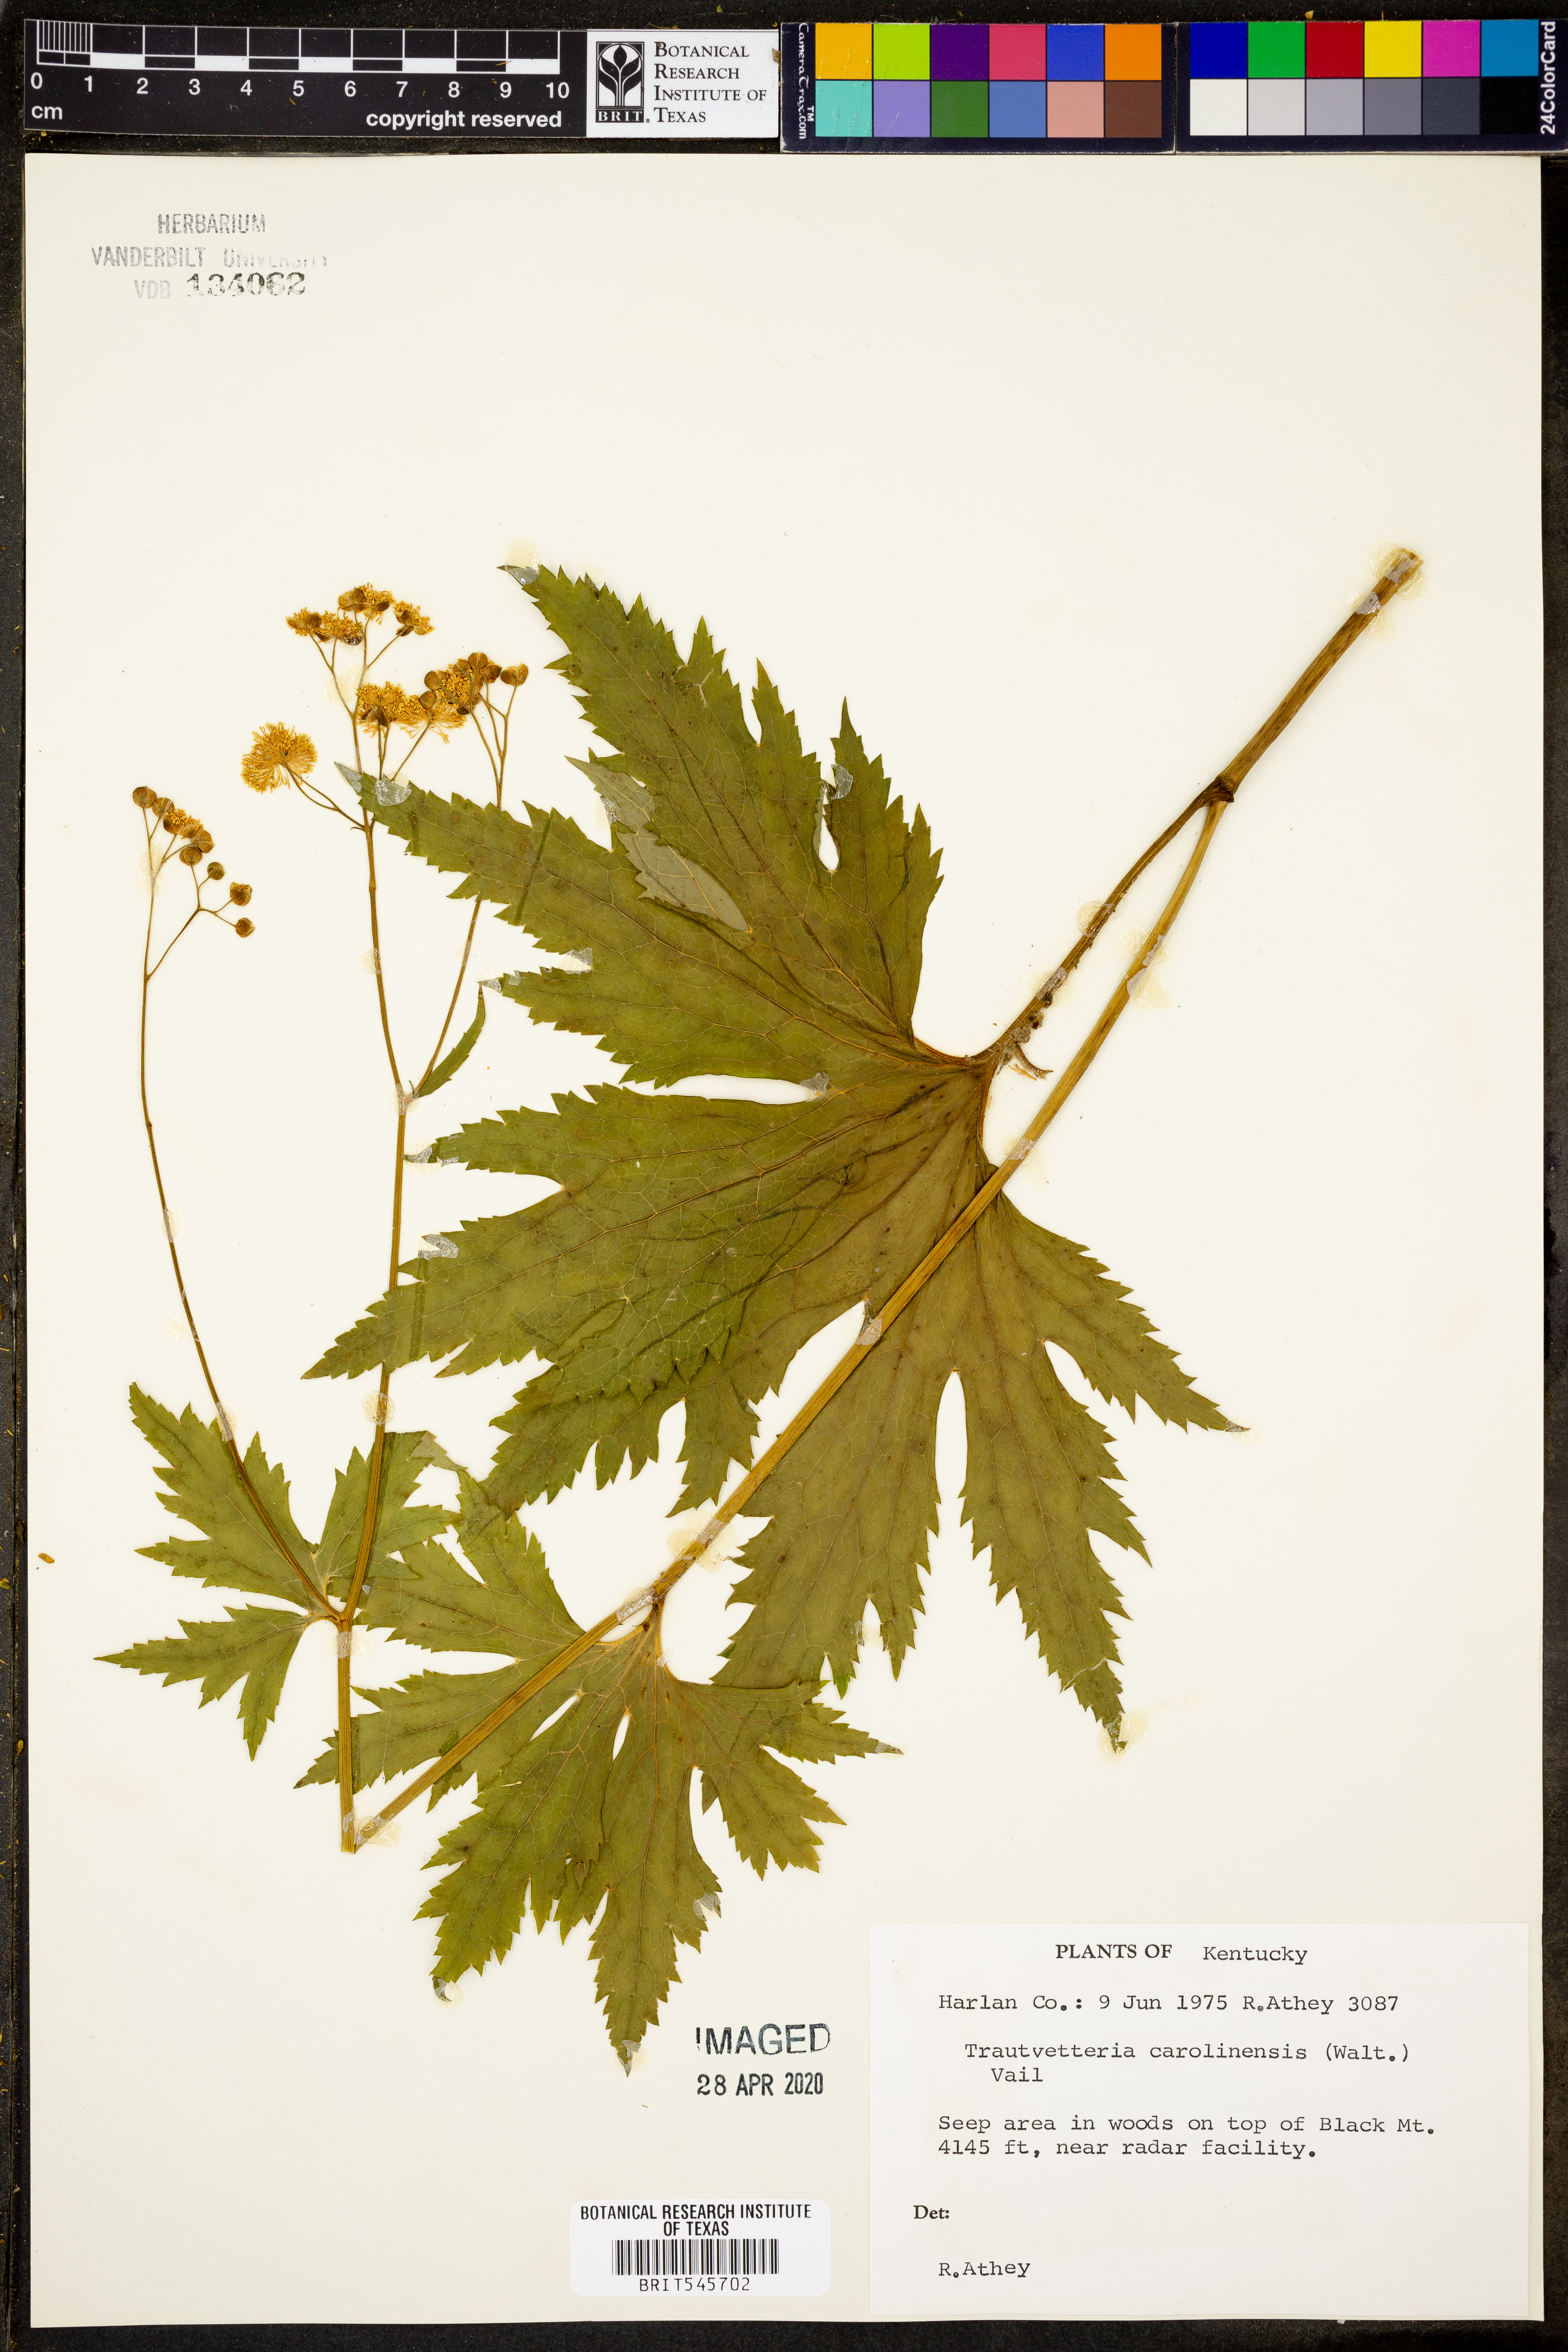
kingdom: Plantae
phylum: Tracheophyta
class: Magnoliopsida
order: Ranunculales
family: Ranunculaceae
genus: Trautvetteria
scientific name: Trautvetteria carolinensis
